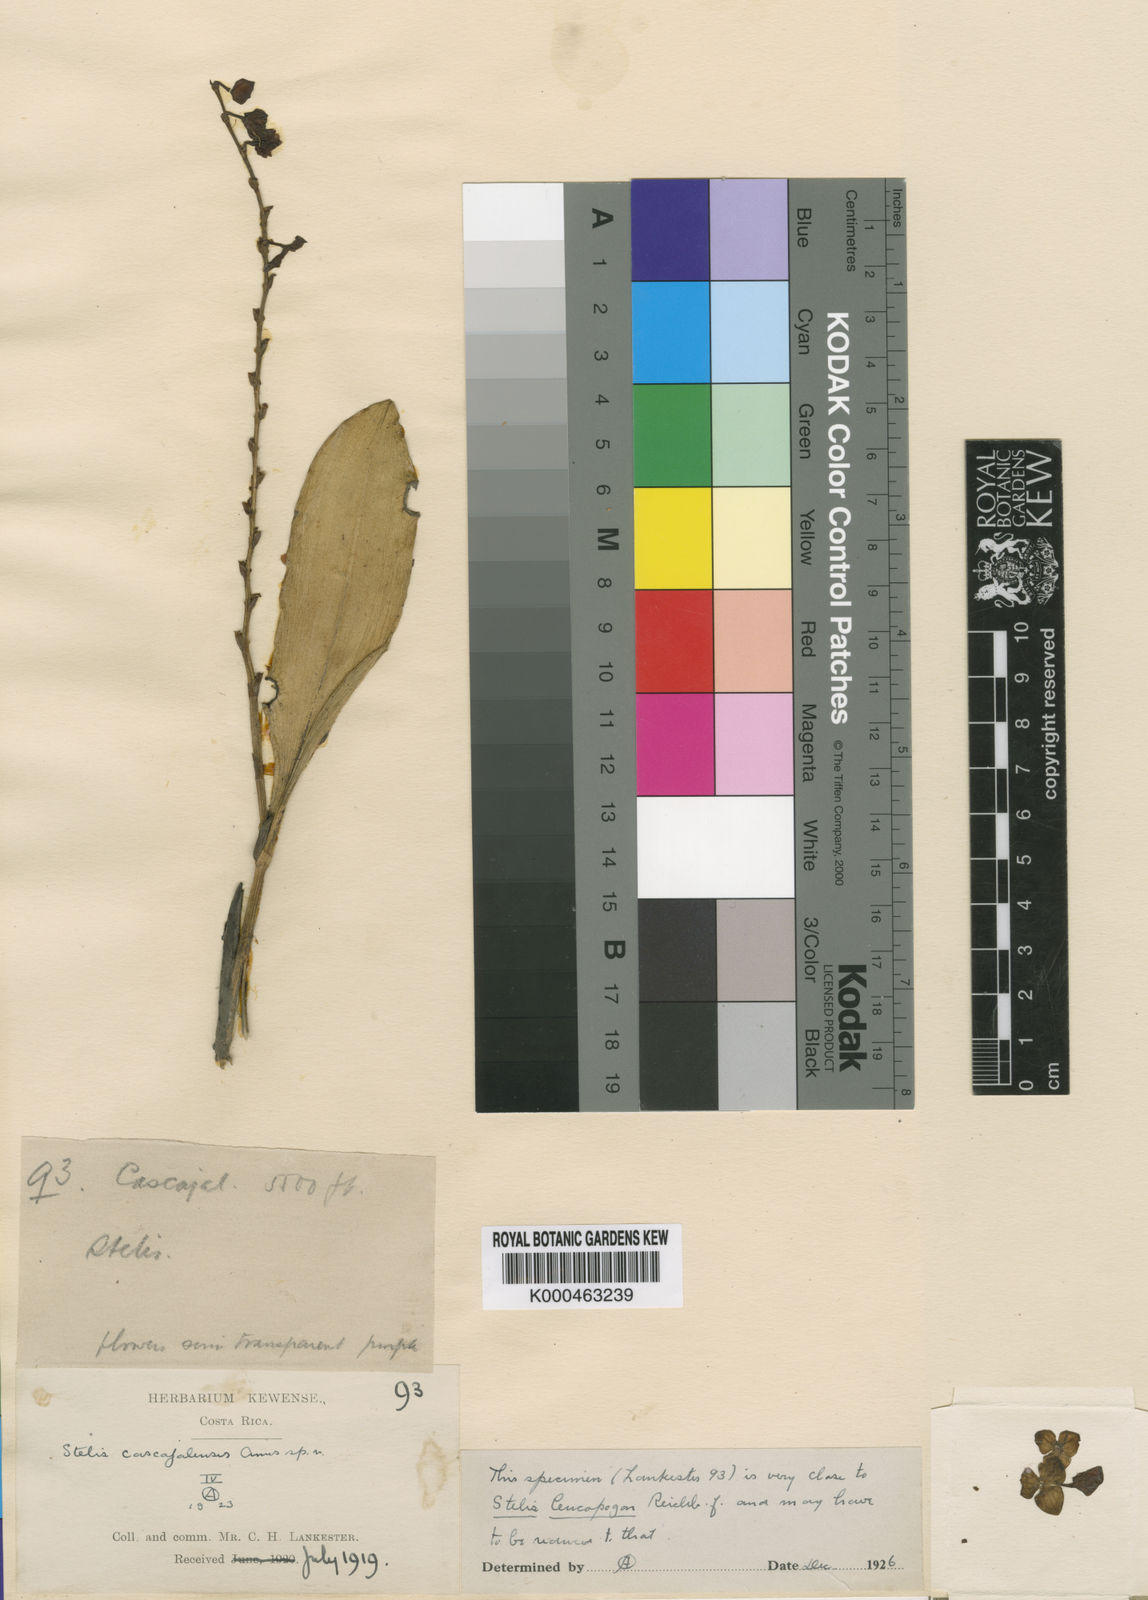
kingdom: Plantae
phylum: Tracheophyta
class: Liliopsida
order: Asparagales
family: Orchidaceae
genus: Stelis
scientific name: Stelis superbiens
